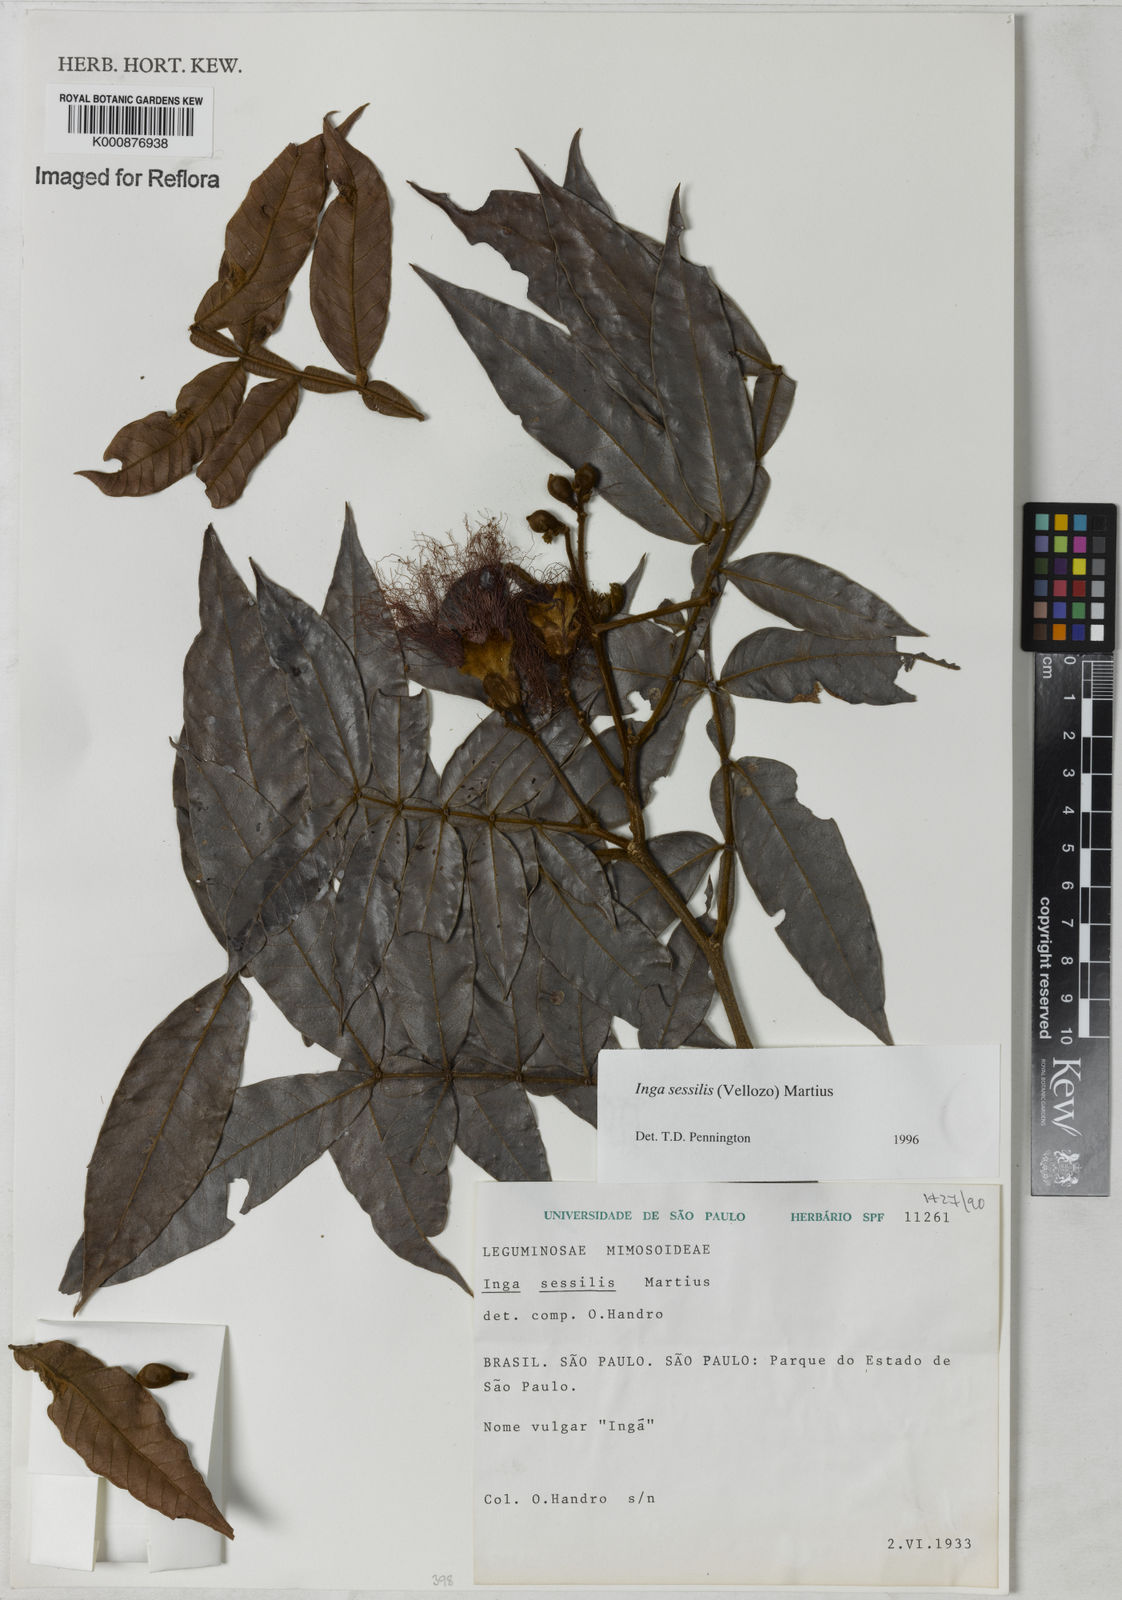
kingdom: Plantae
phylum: Tracheophyta
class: Magnoliopsida
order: Fabales
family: Fabaceae
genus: Inga
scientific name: Inga sessilis
